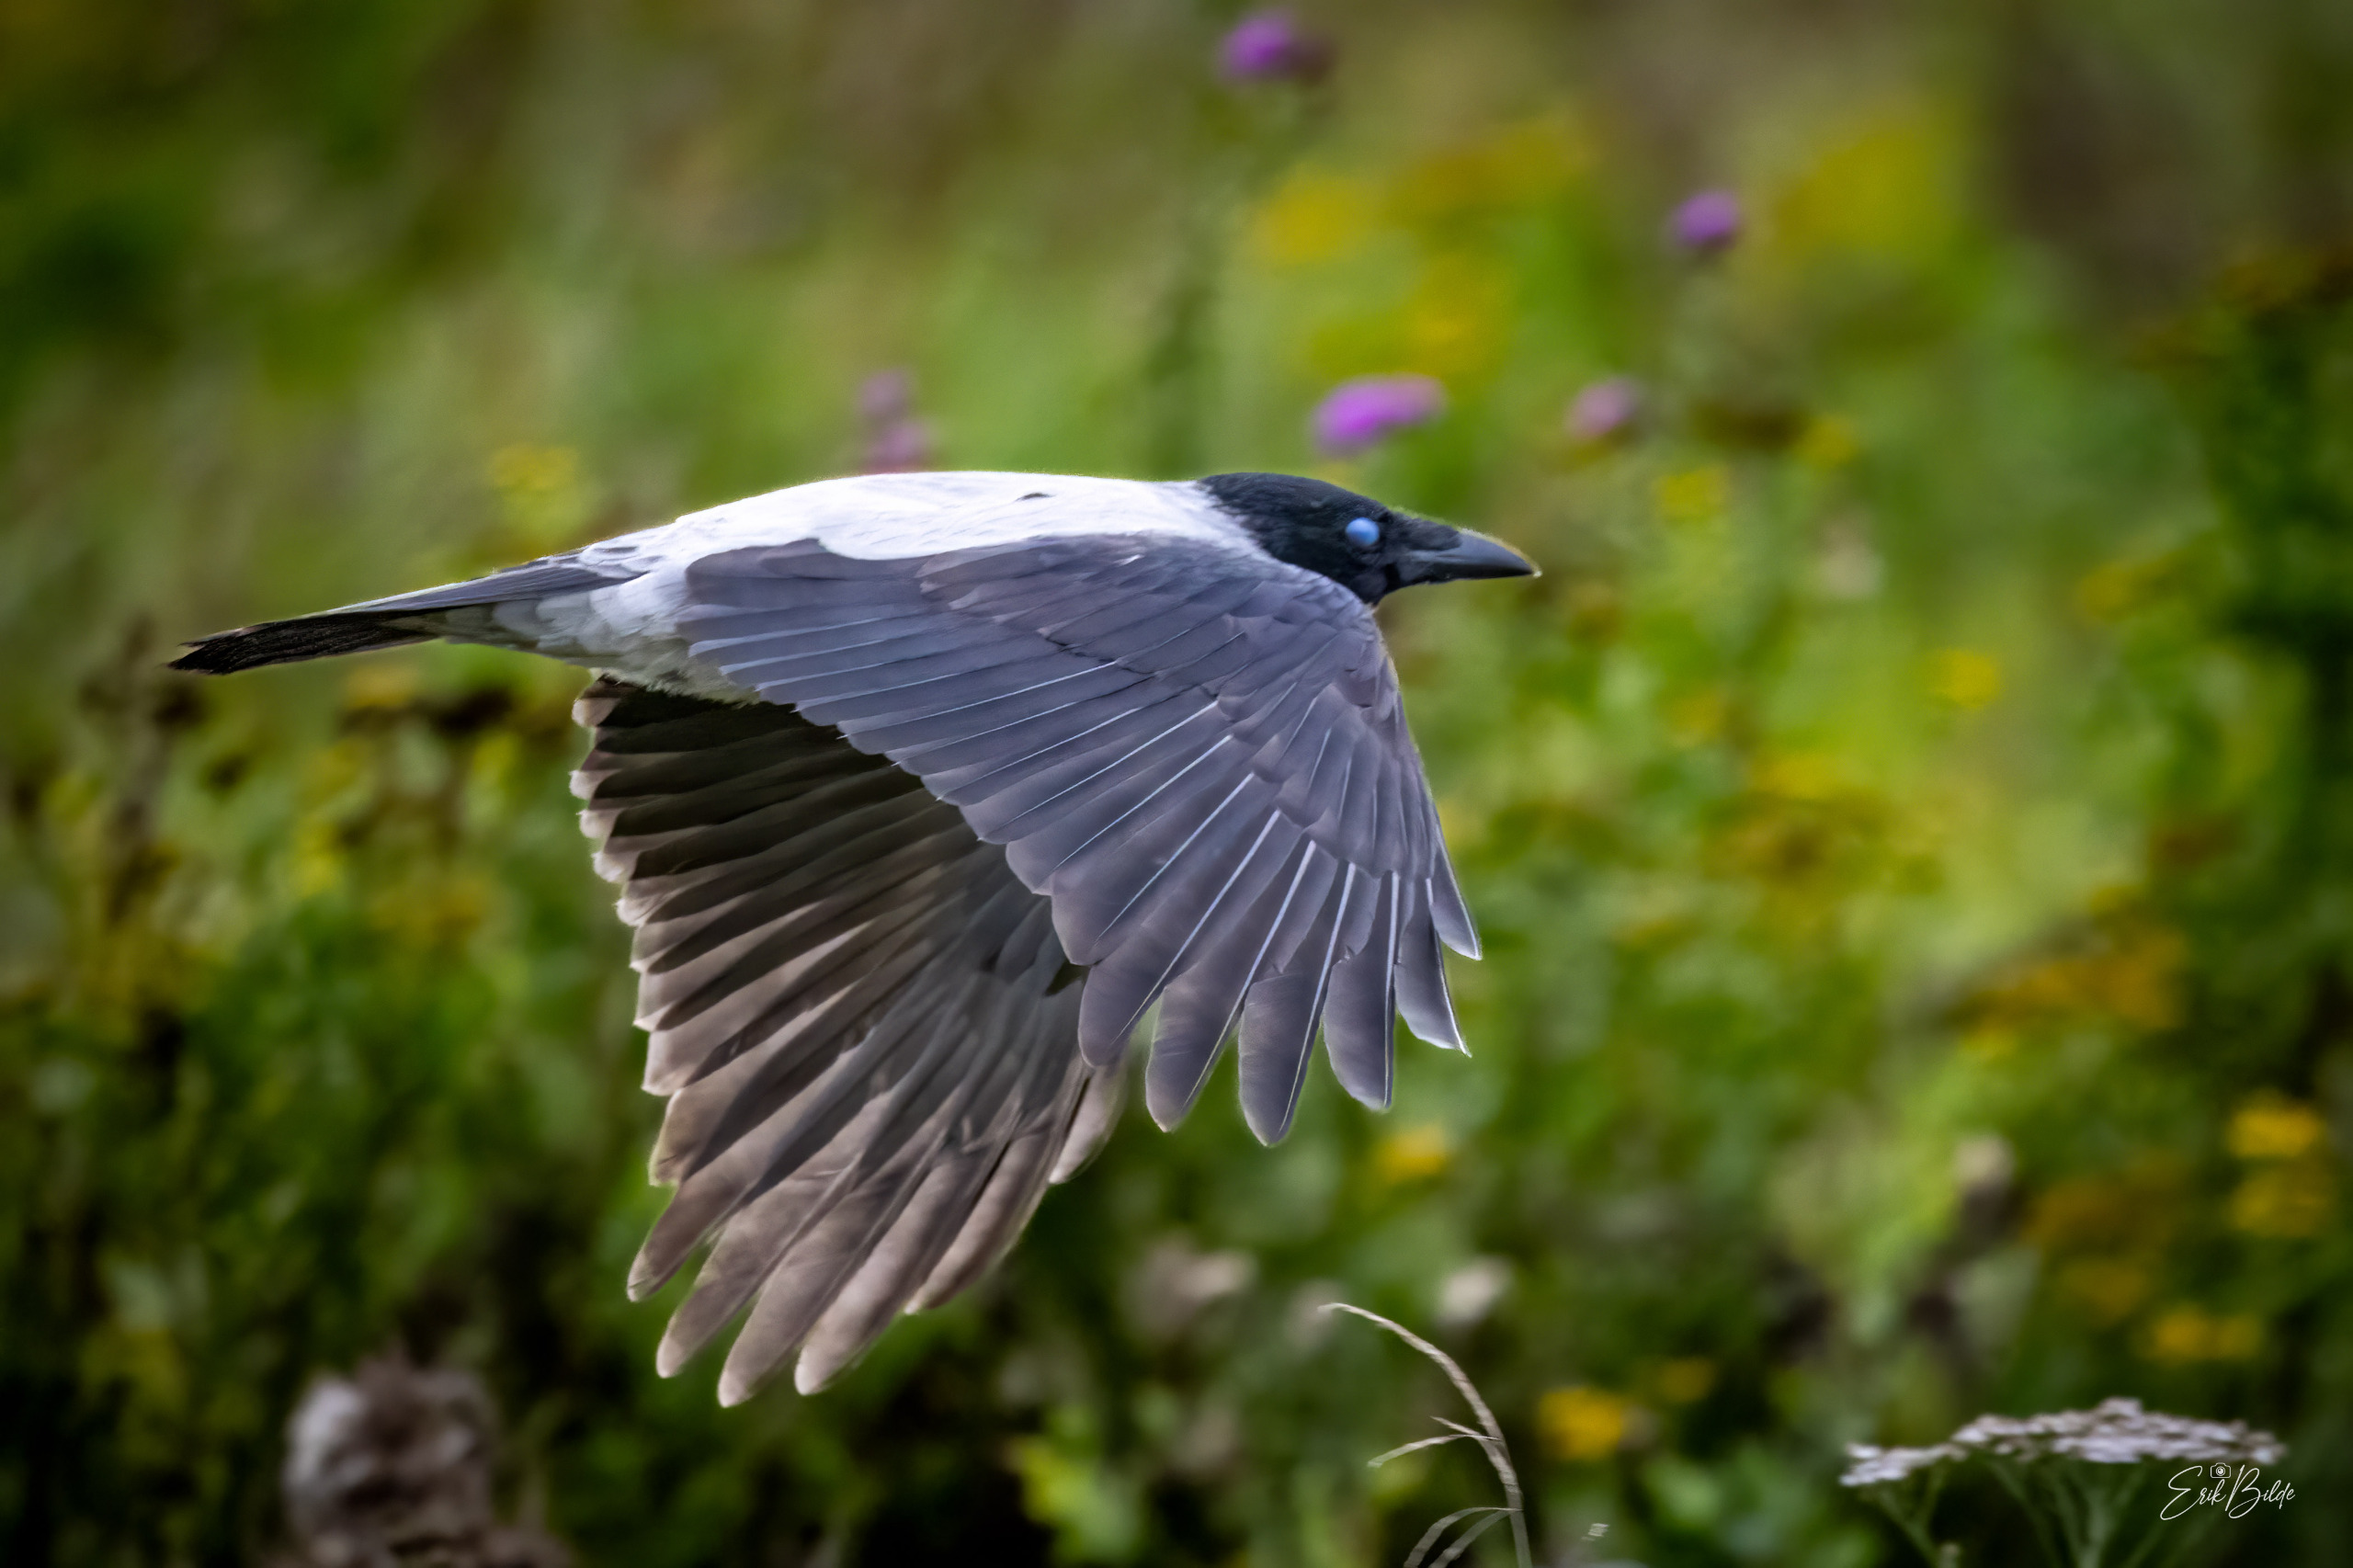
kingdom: Animalia
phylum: Chordata
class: Aves
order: Passeriformes
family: Corvidae
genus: Corvus
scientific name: Corvus cornix
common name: Gråkrage
